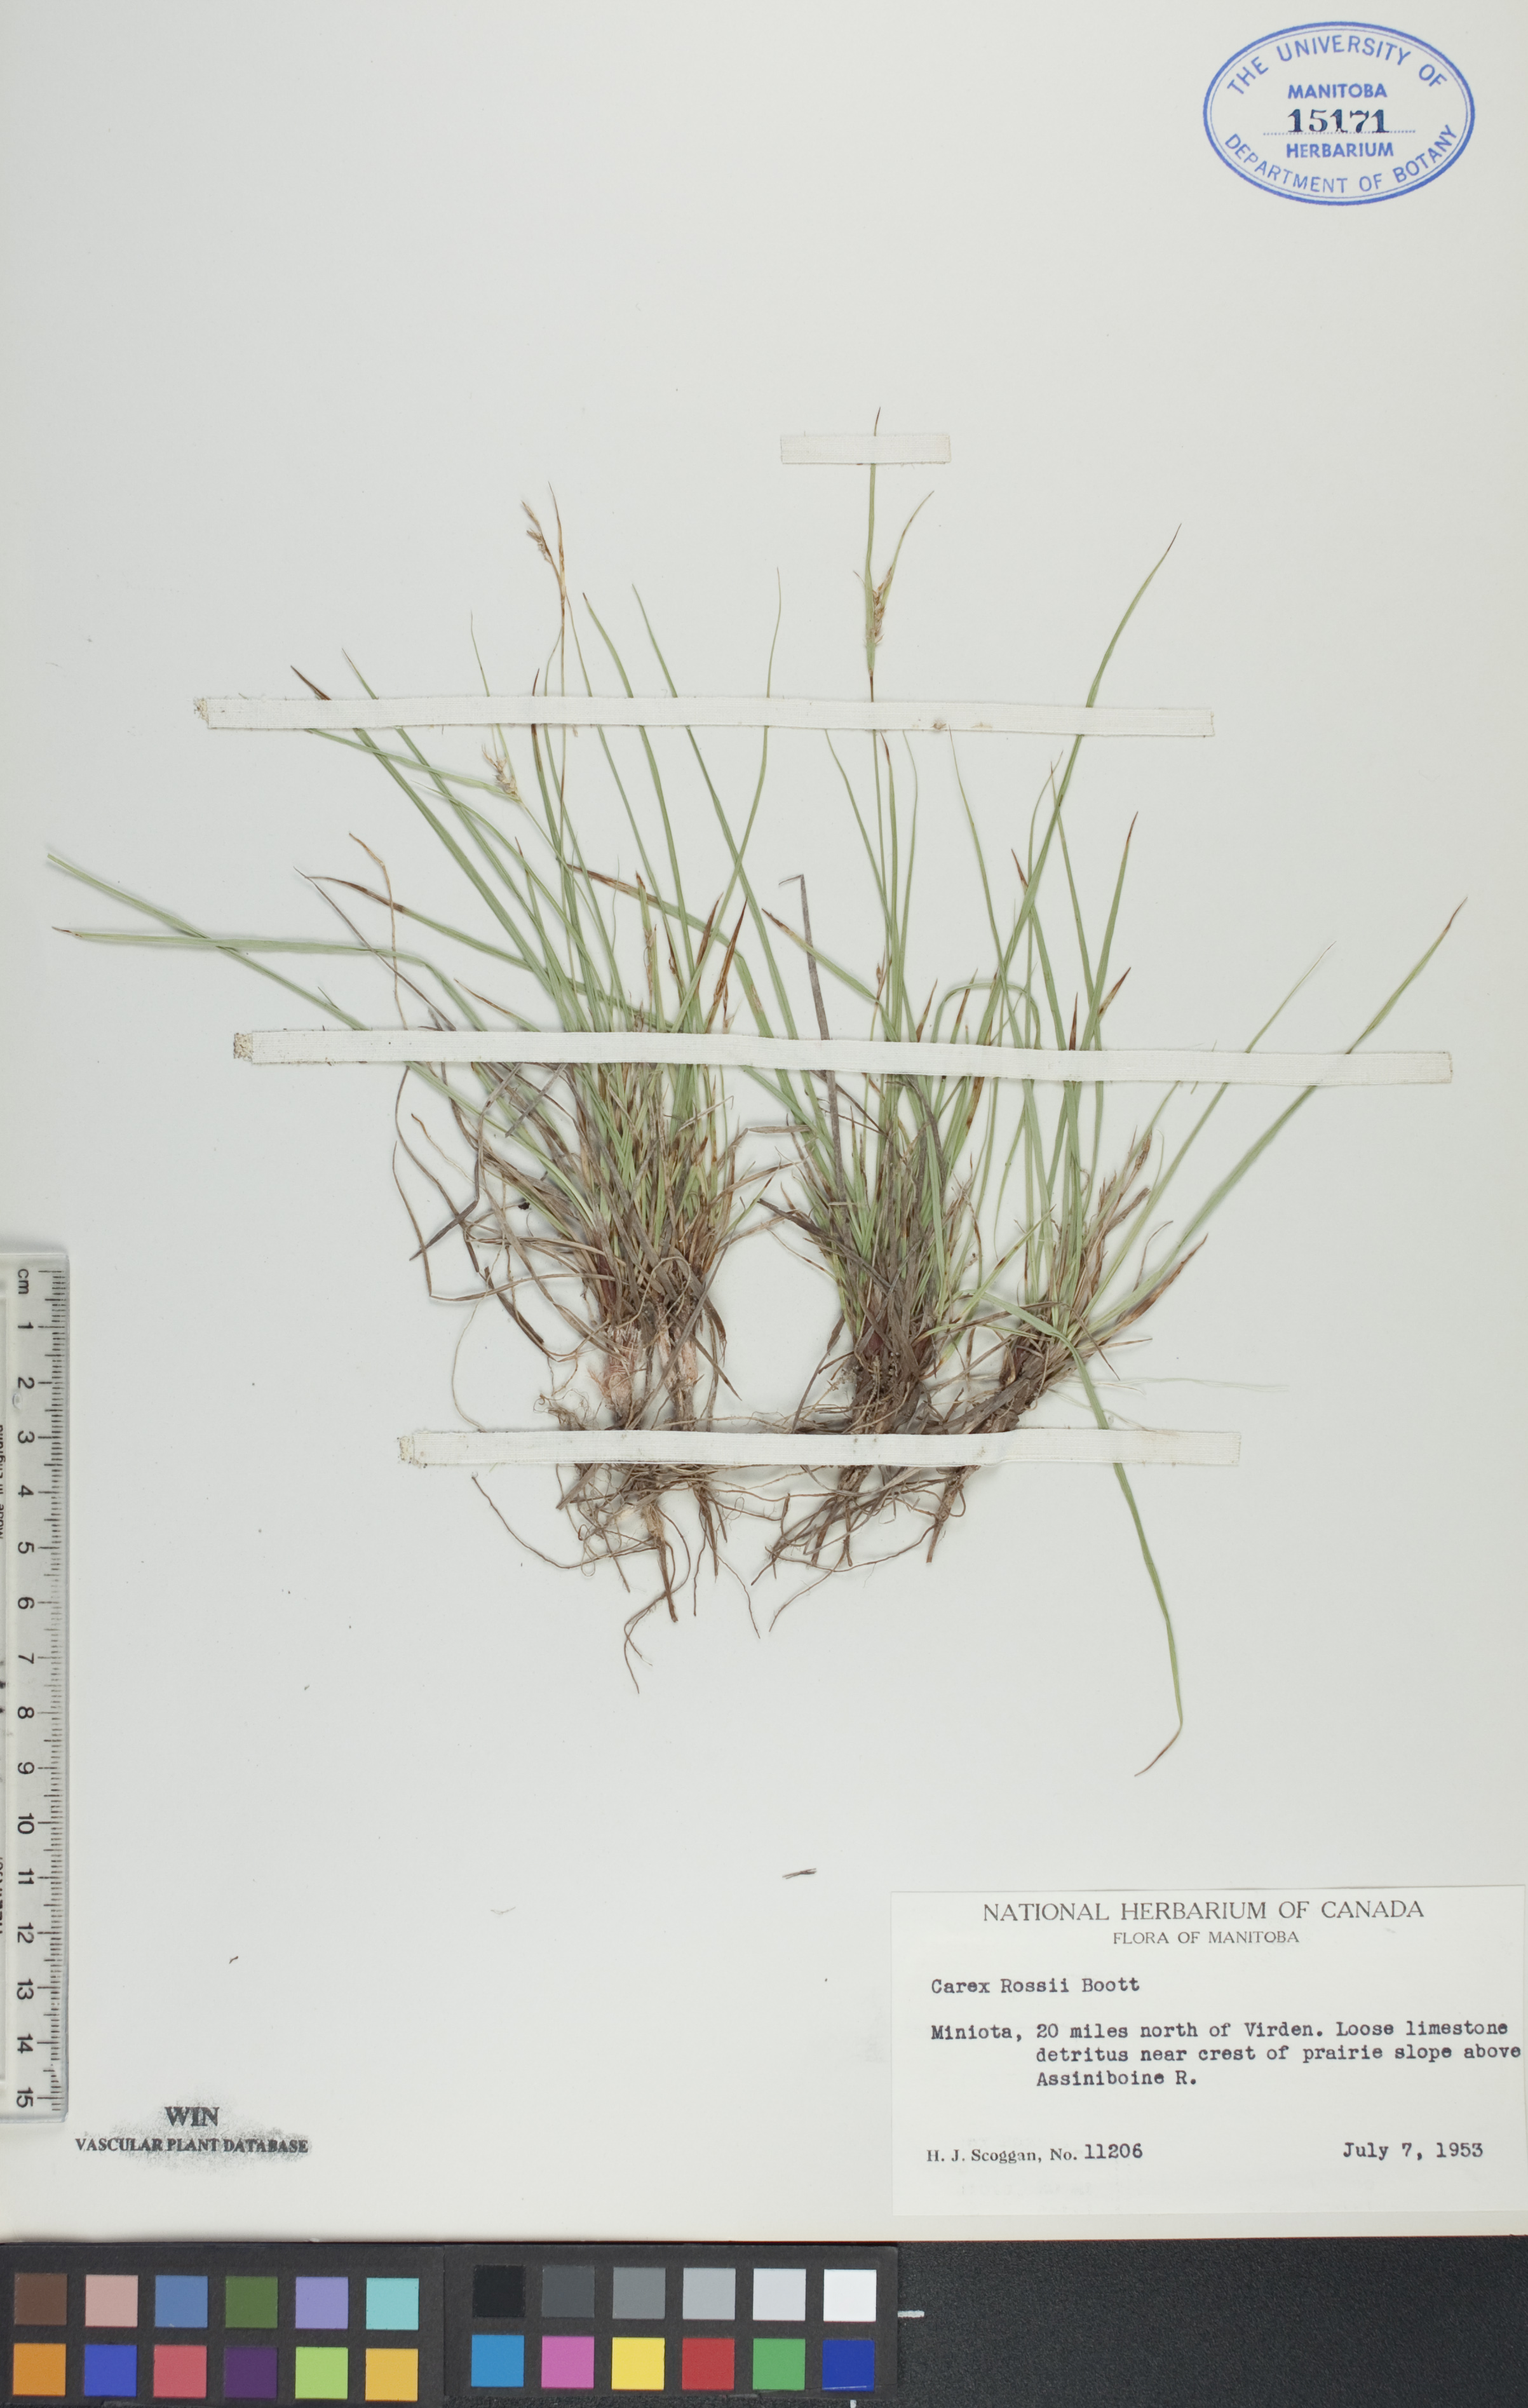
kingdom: Plantae
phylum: Tracheophyta
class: Liliopsida
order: Poales
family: Cyperaceae
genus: Carex
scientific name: Carex rossii
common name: Ross' sedge
